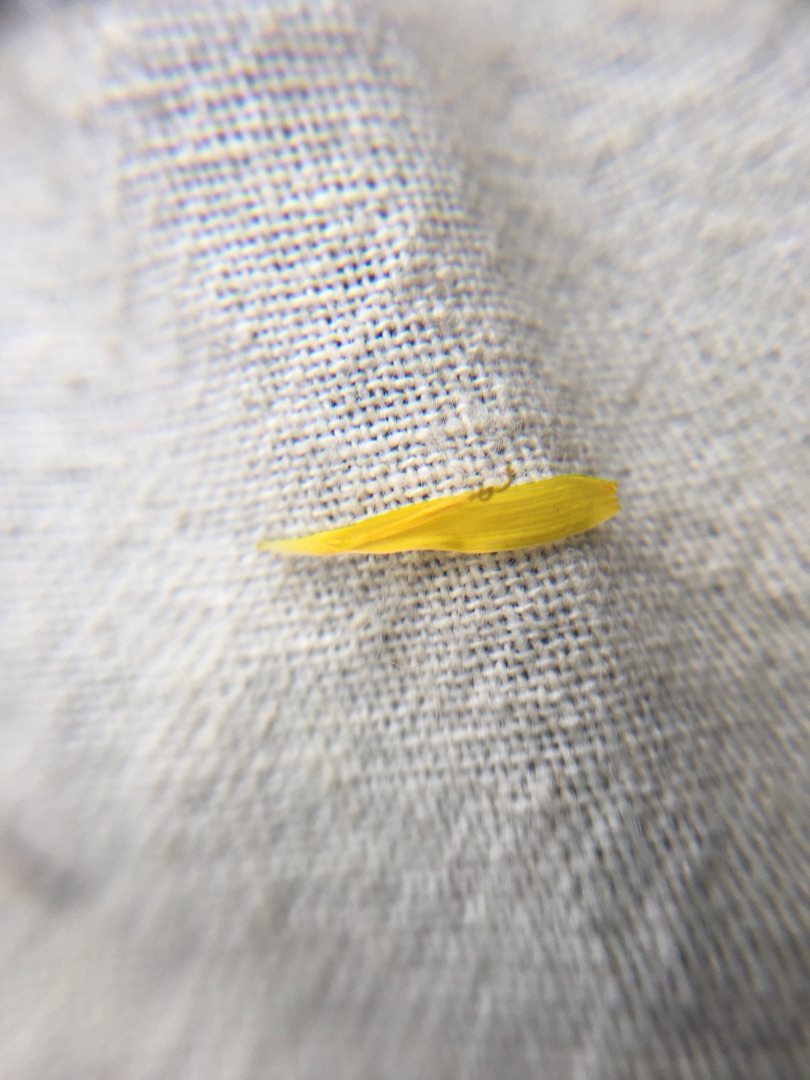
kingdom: Plantae
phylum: Tracheophyta
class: Magnoliopsida
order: Asterales
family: Asteraceae
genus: Scorzoneroides
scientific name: Scorzoneroides autumnalis
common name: Høst-borst
